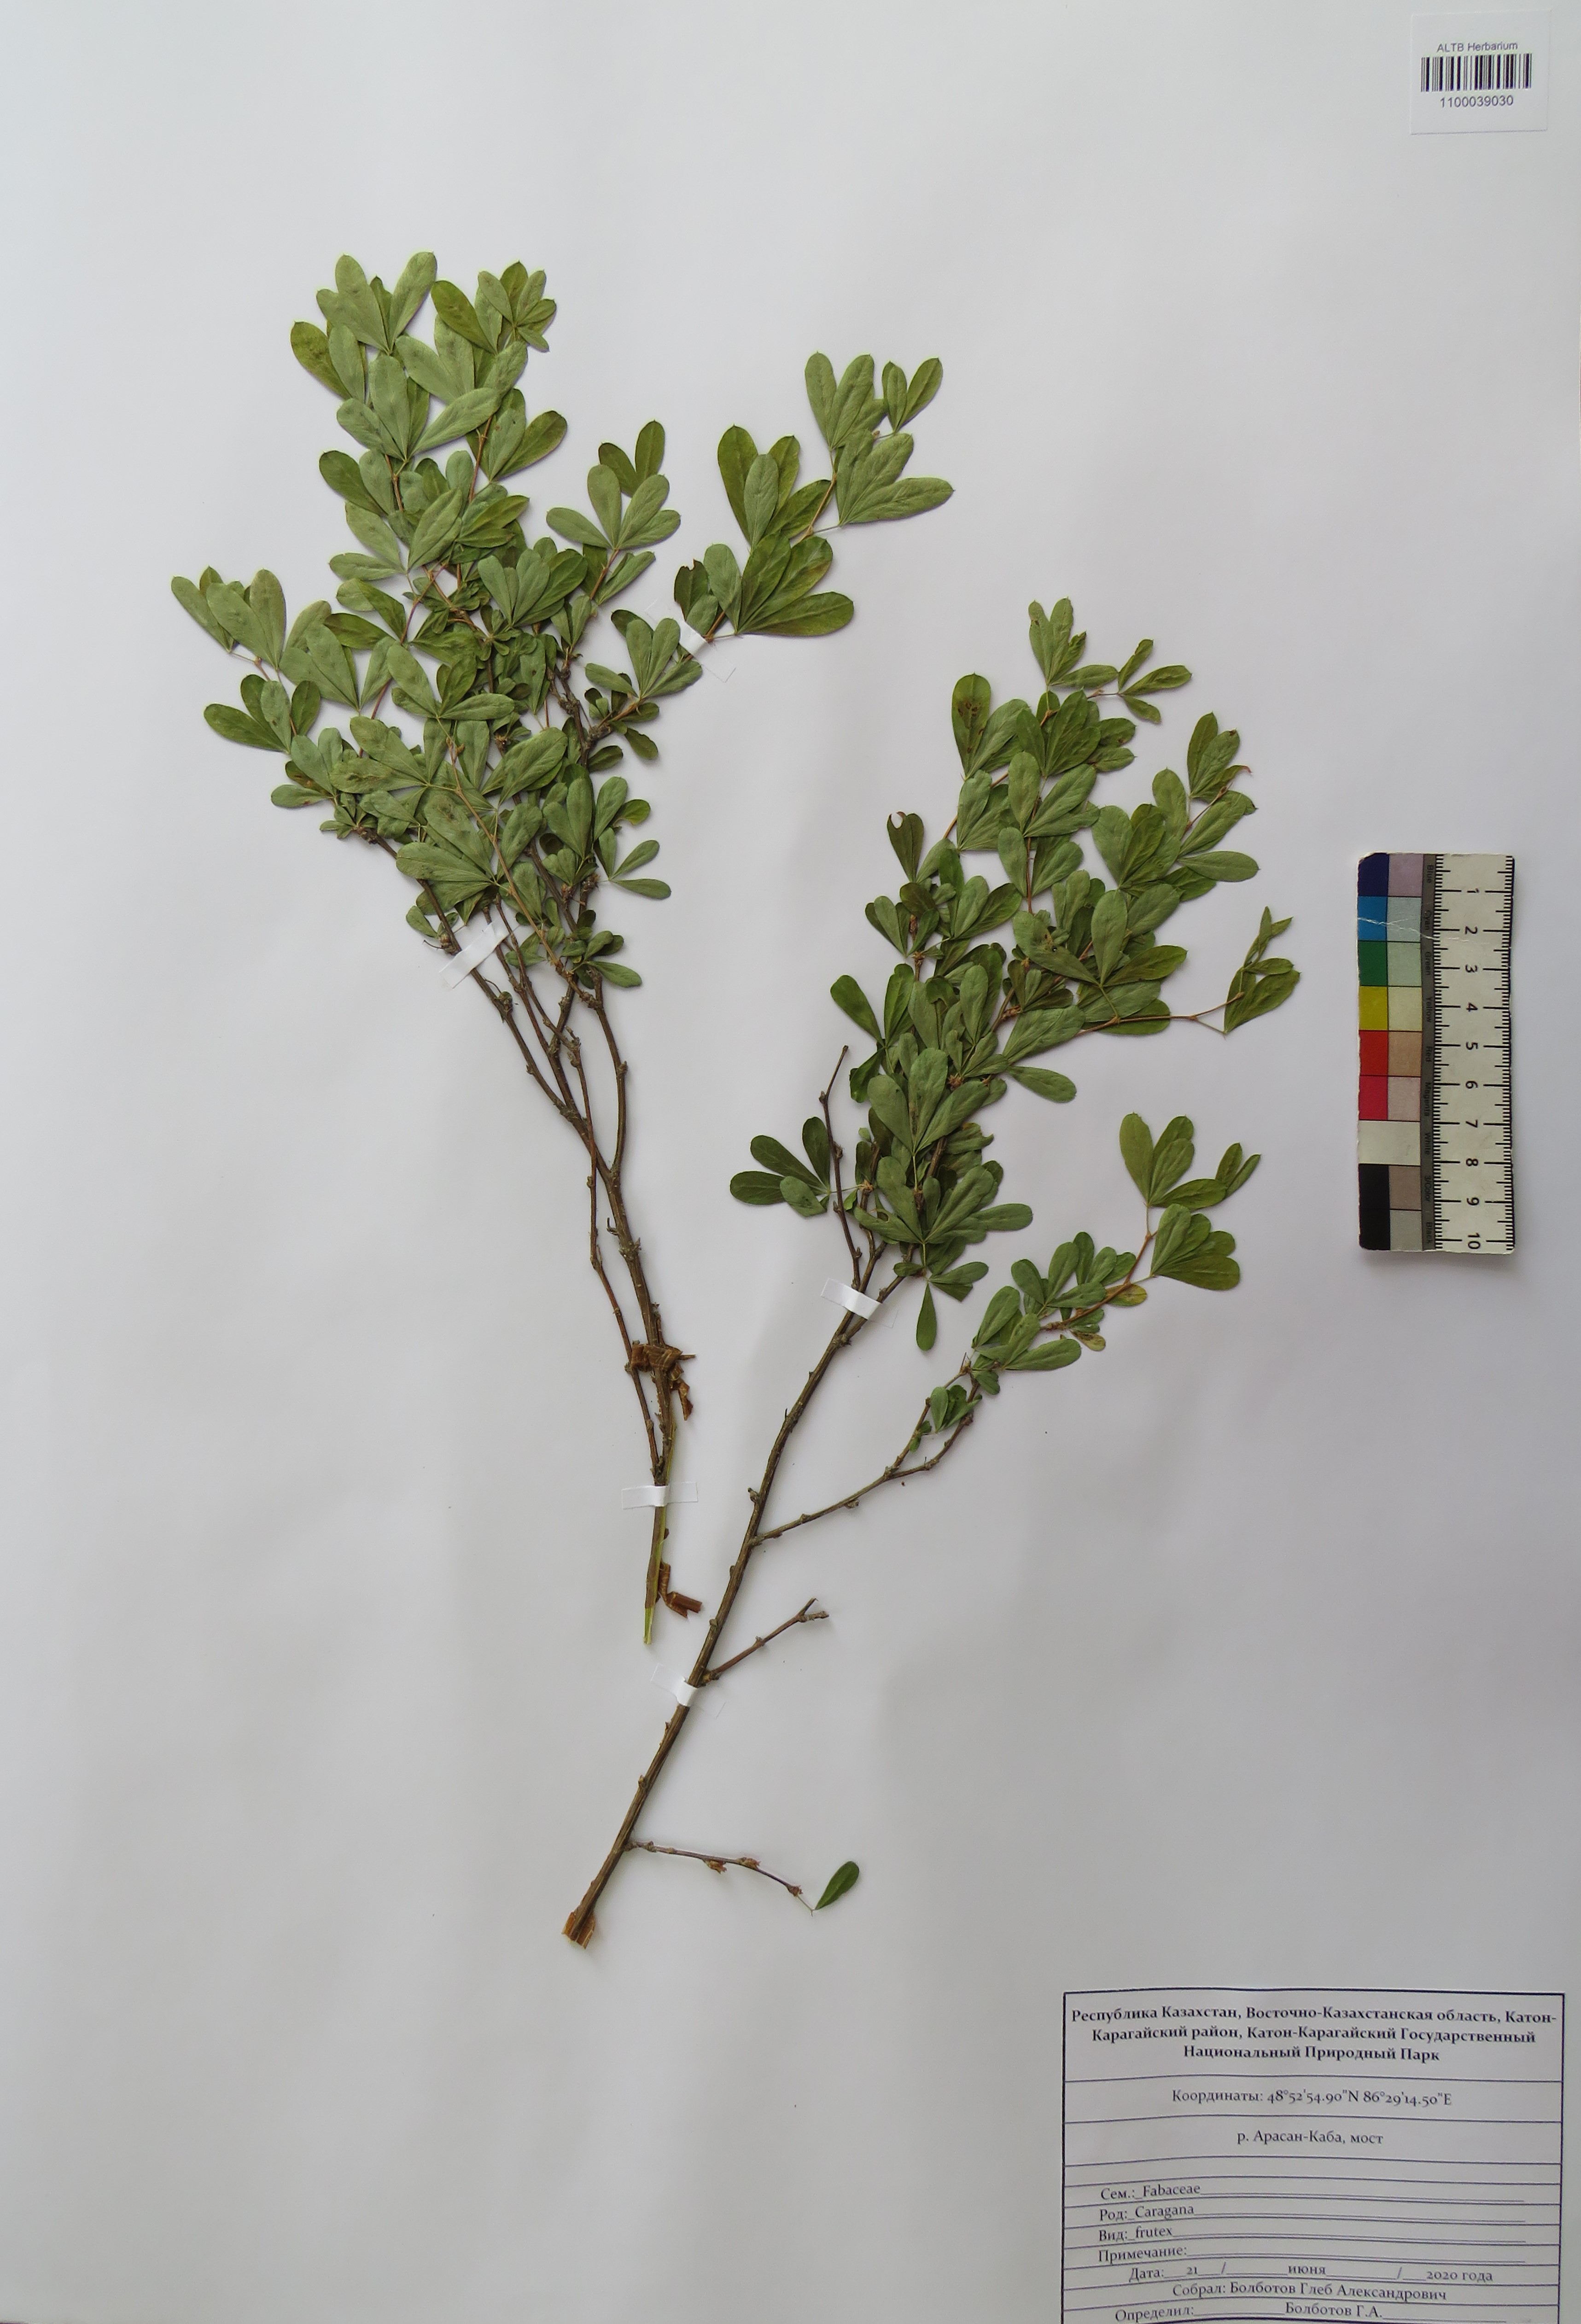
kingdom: Plantae
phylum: Tracheophyta
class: Magnoliopsida
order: Fabales
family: Fabaceae
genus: Caragana
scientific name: Caragana frutex
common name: Russian peashrub
